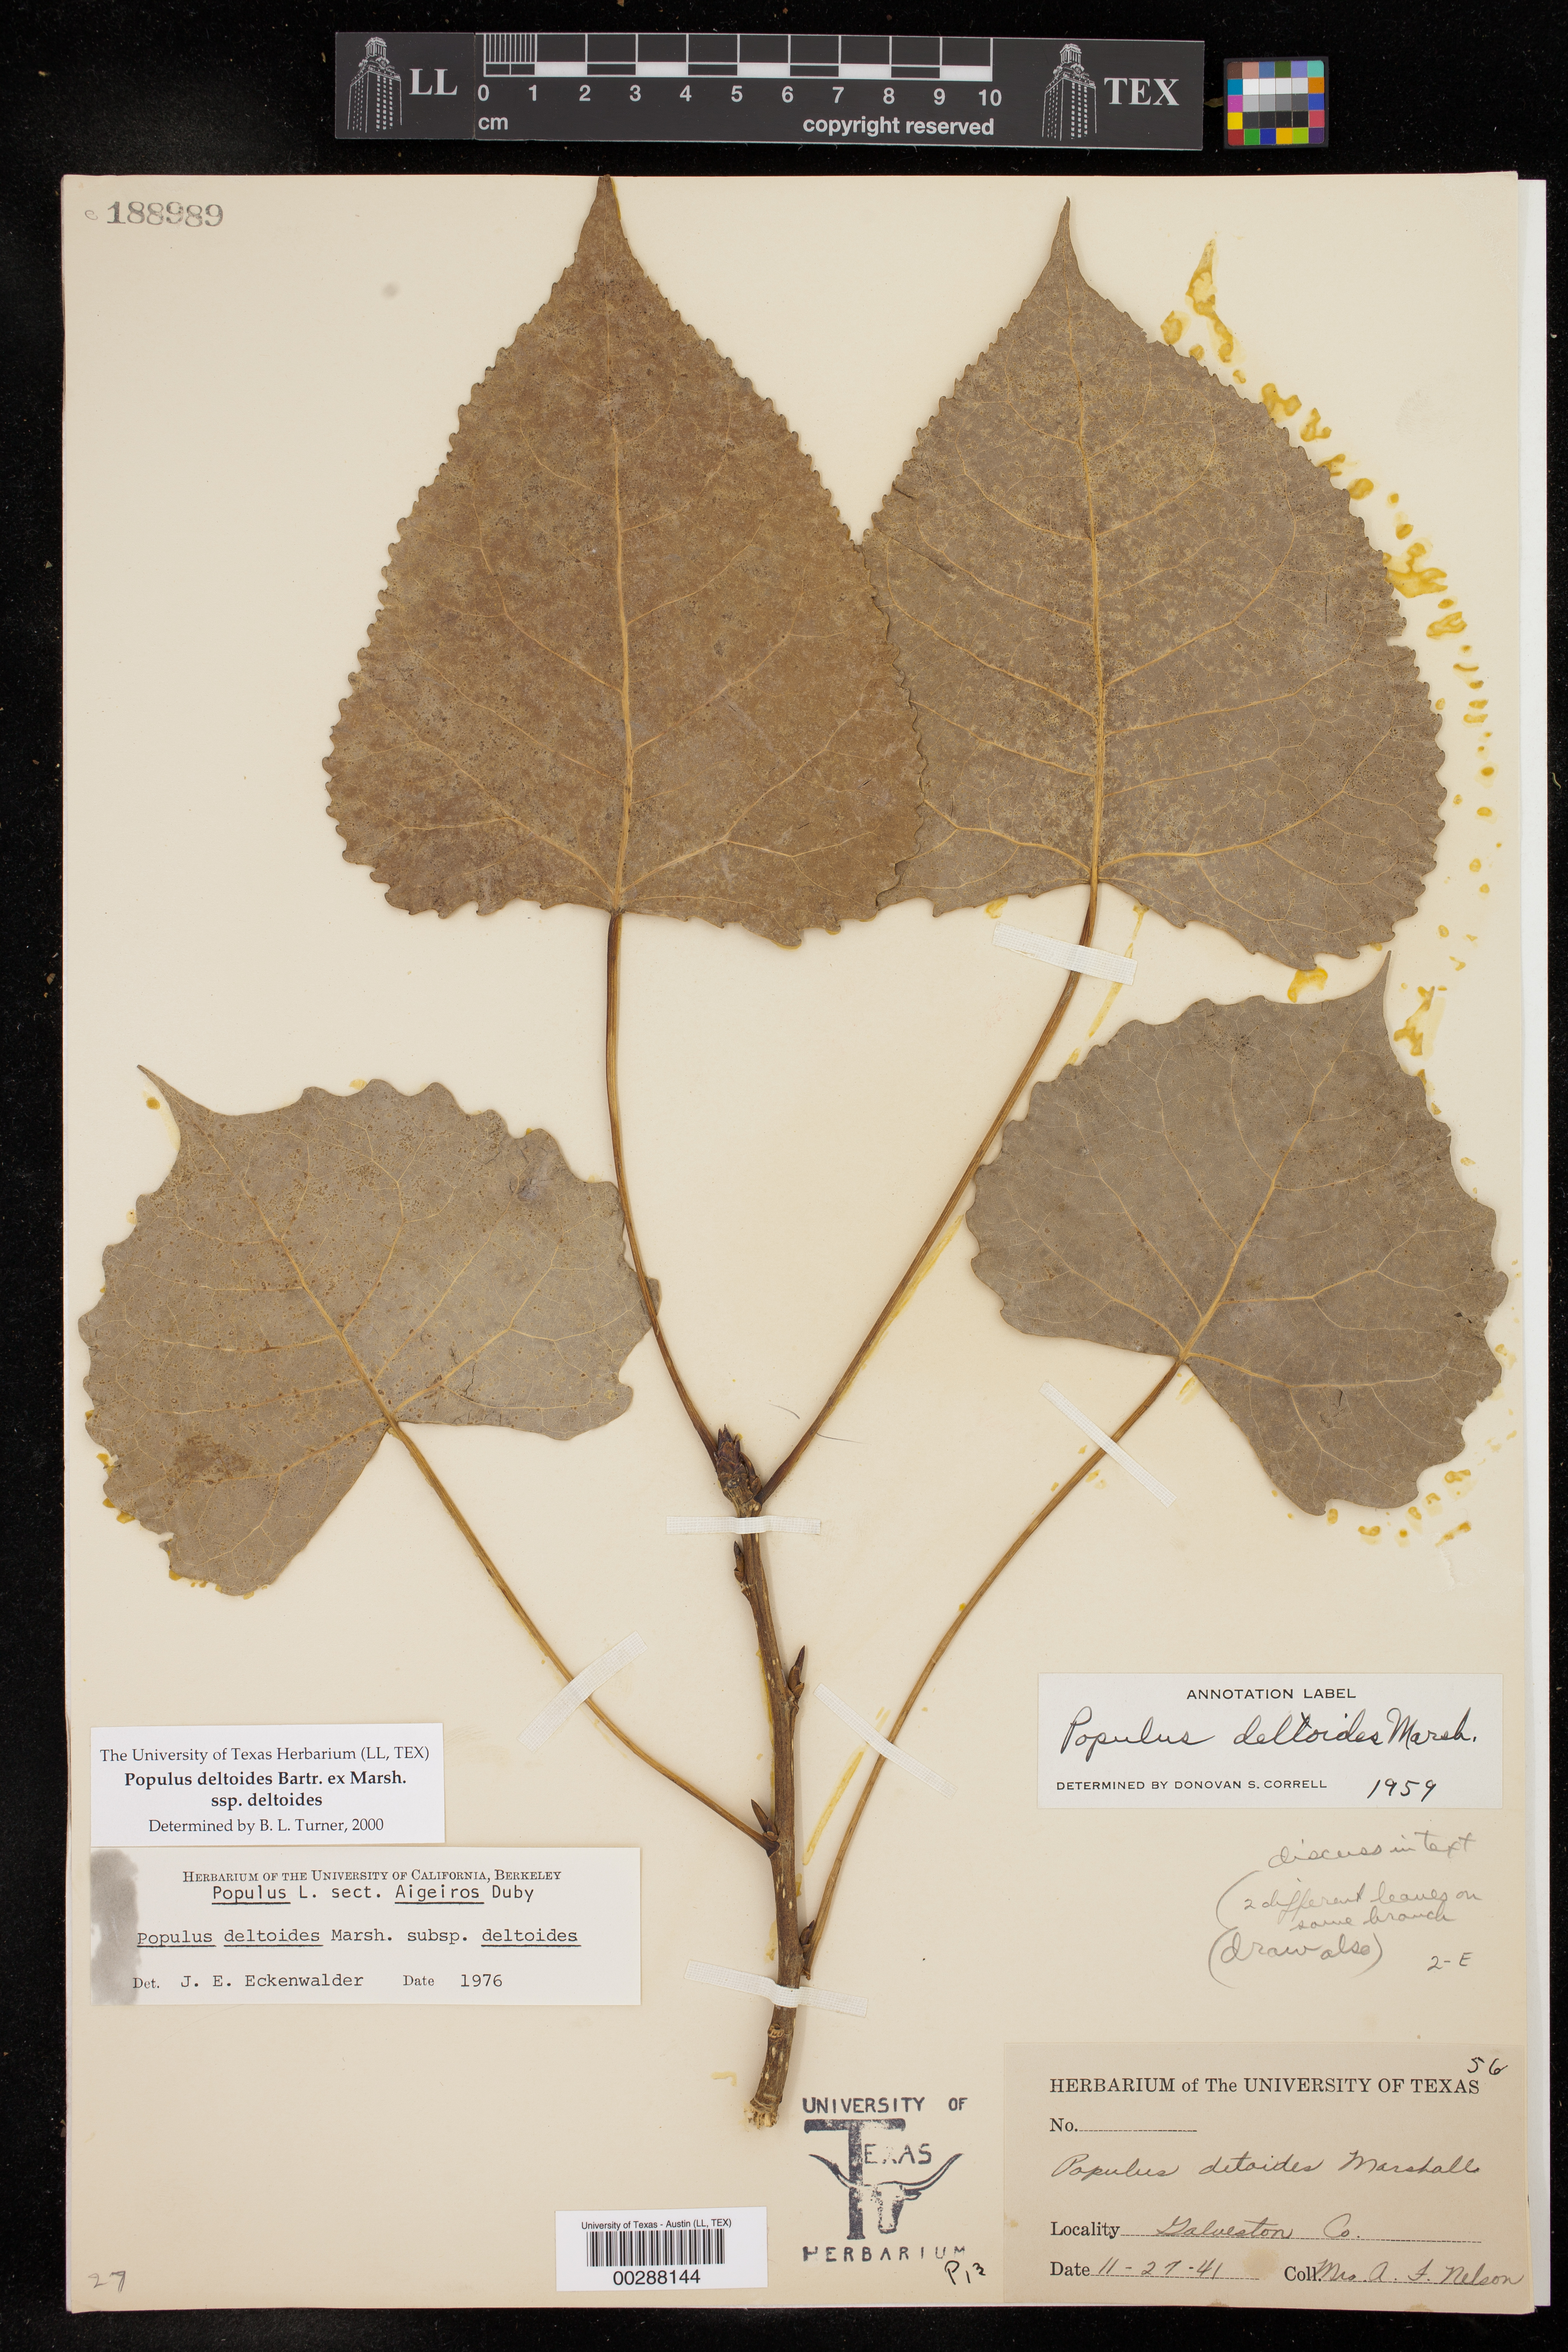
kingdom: Plantae
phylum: Tracheophyta
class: Magnoliopsida
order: Malpighiales
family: Salicaceae
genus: Populus
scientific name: Populus deltoides
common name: Eastern cottonwood
